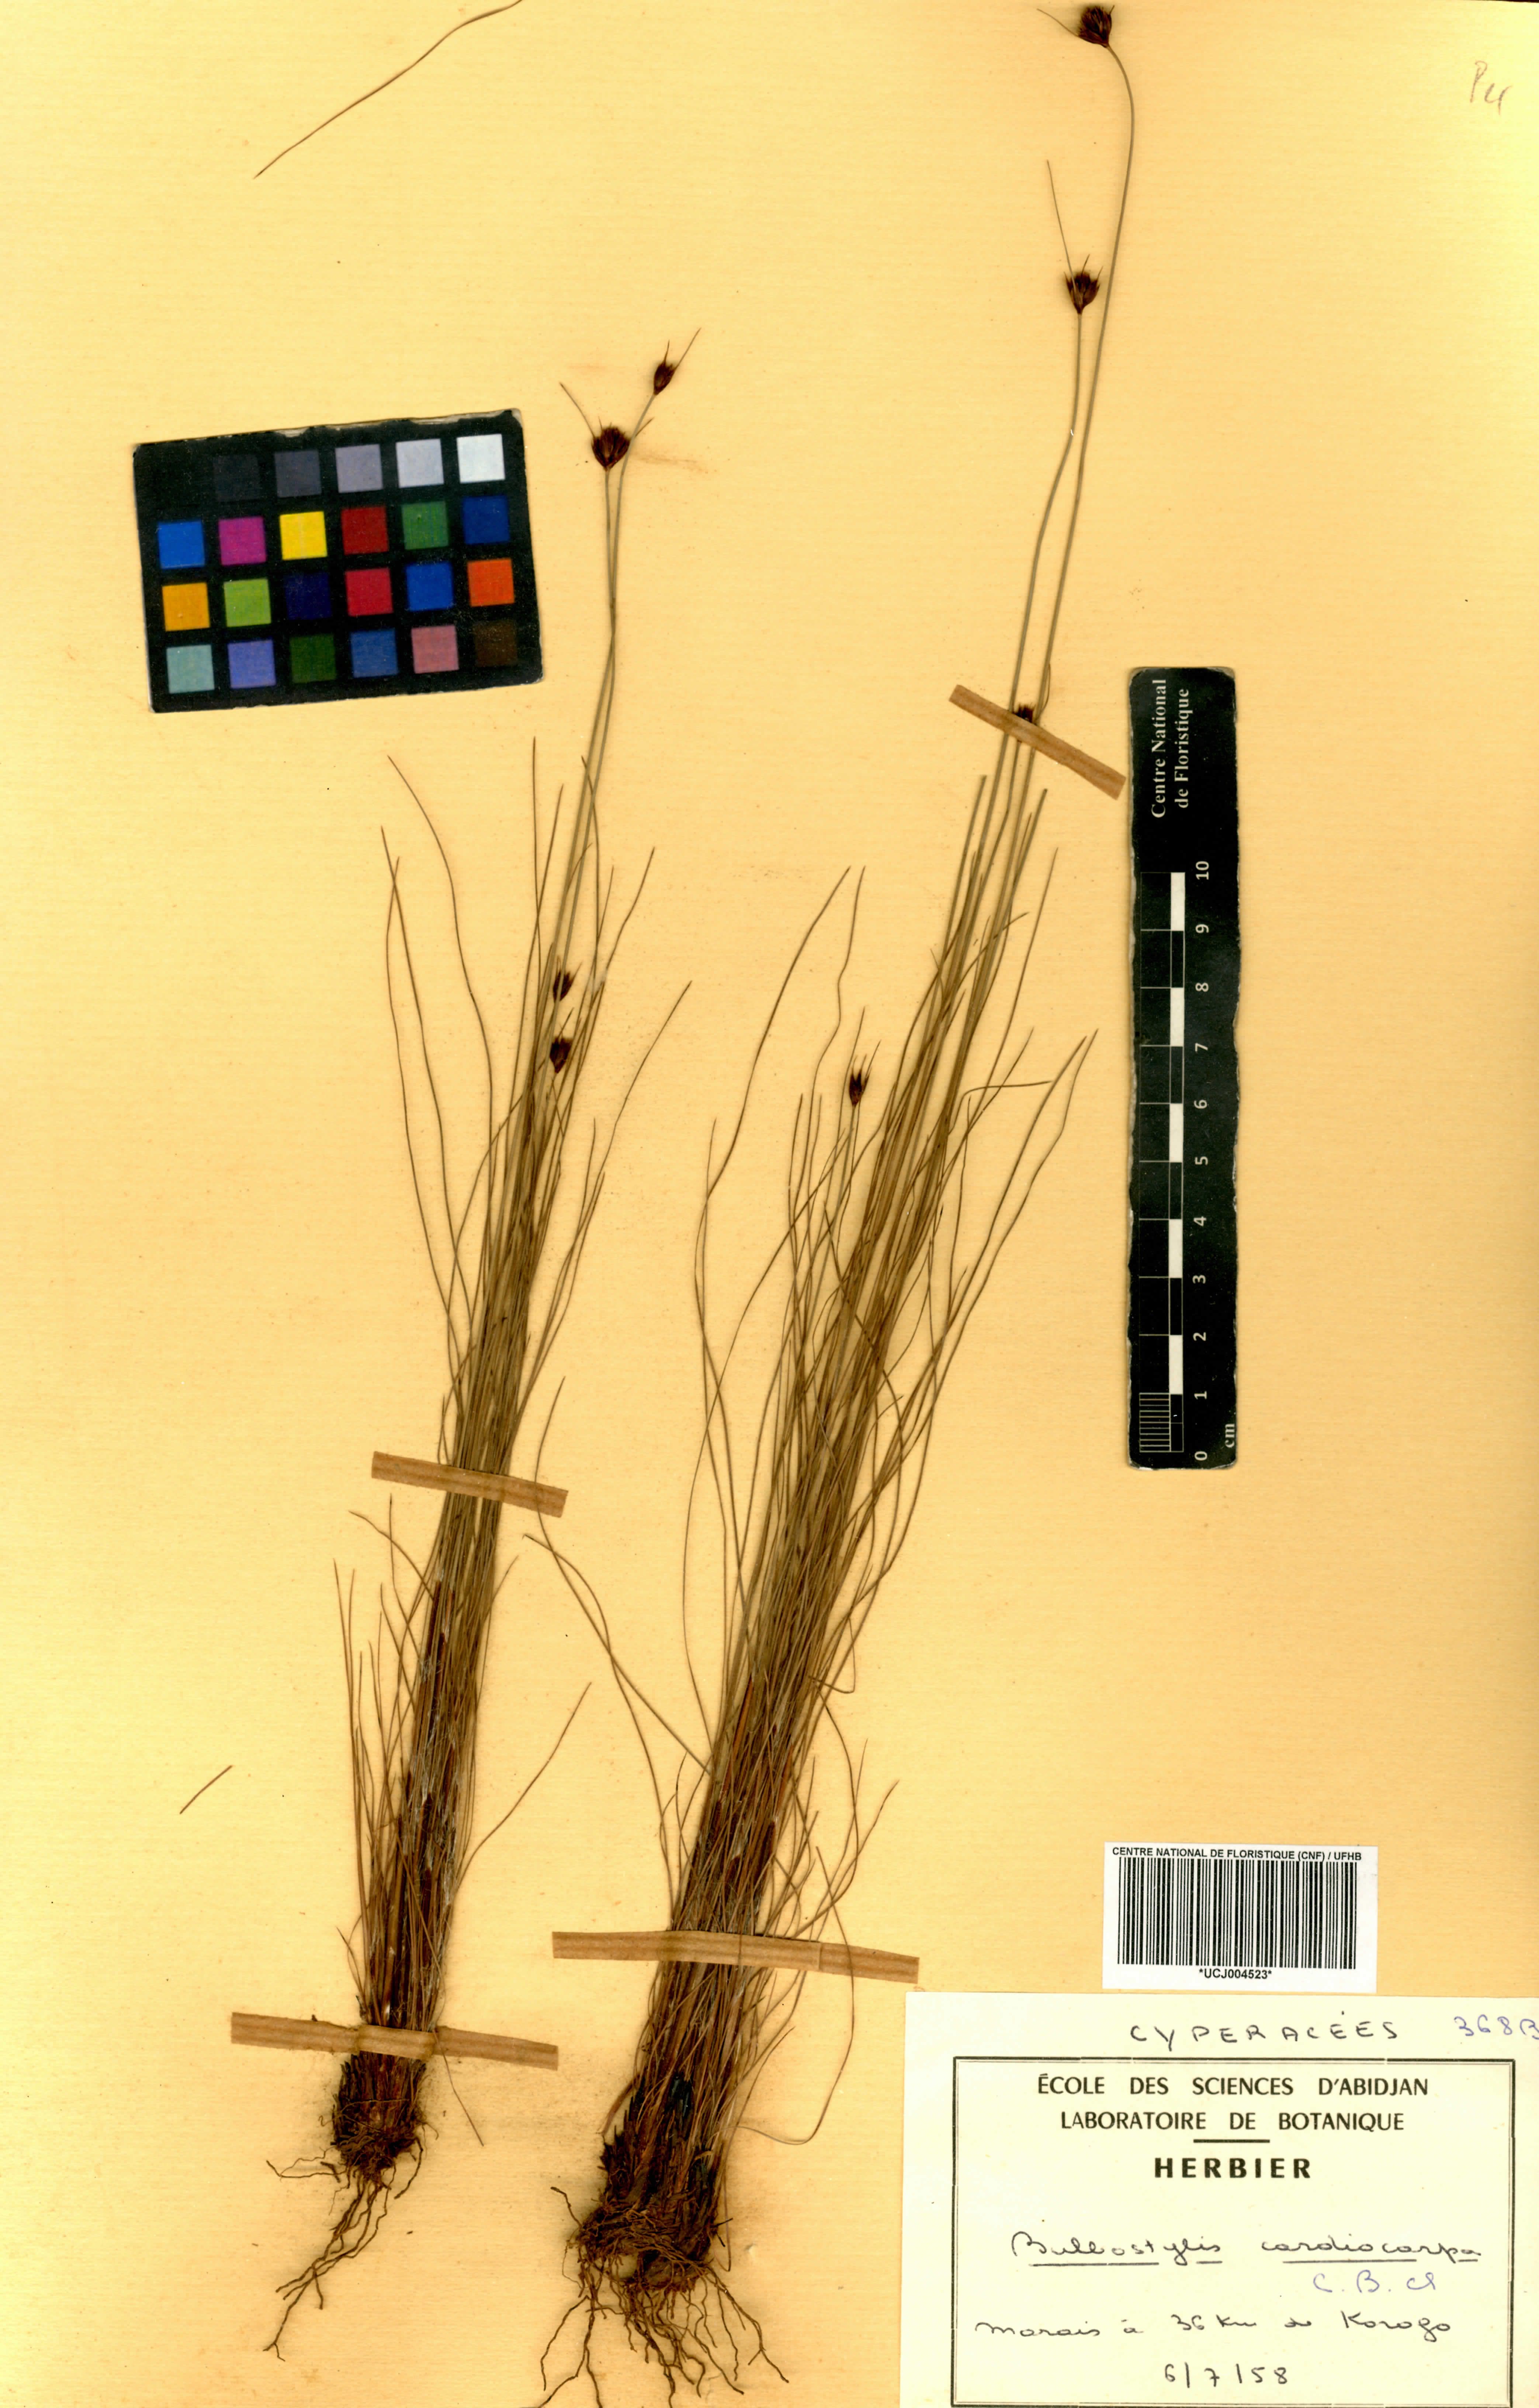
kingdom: Plantae
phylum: Tracheophyta
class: Liliopsida
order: Poales
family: Cyperaceae
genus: Bulbostylis
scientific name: Bulbostylis filamentosa
